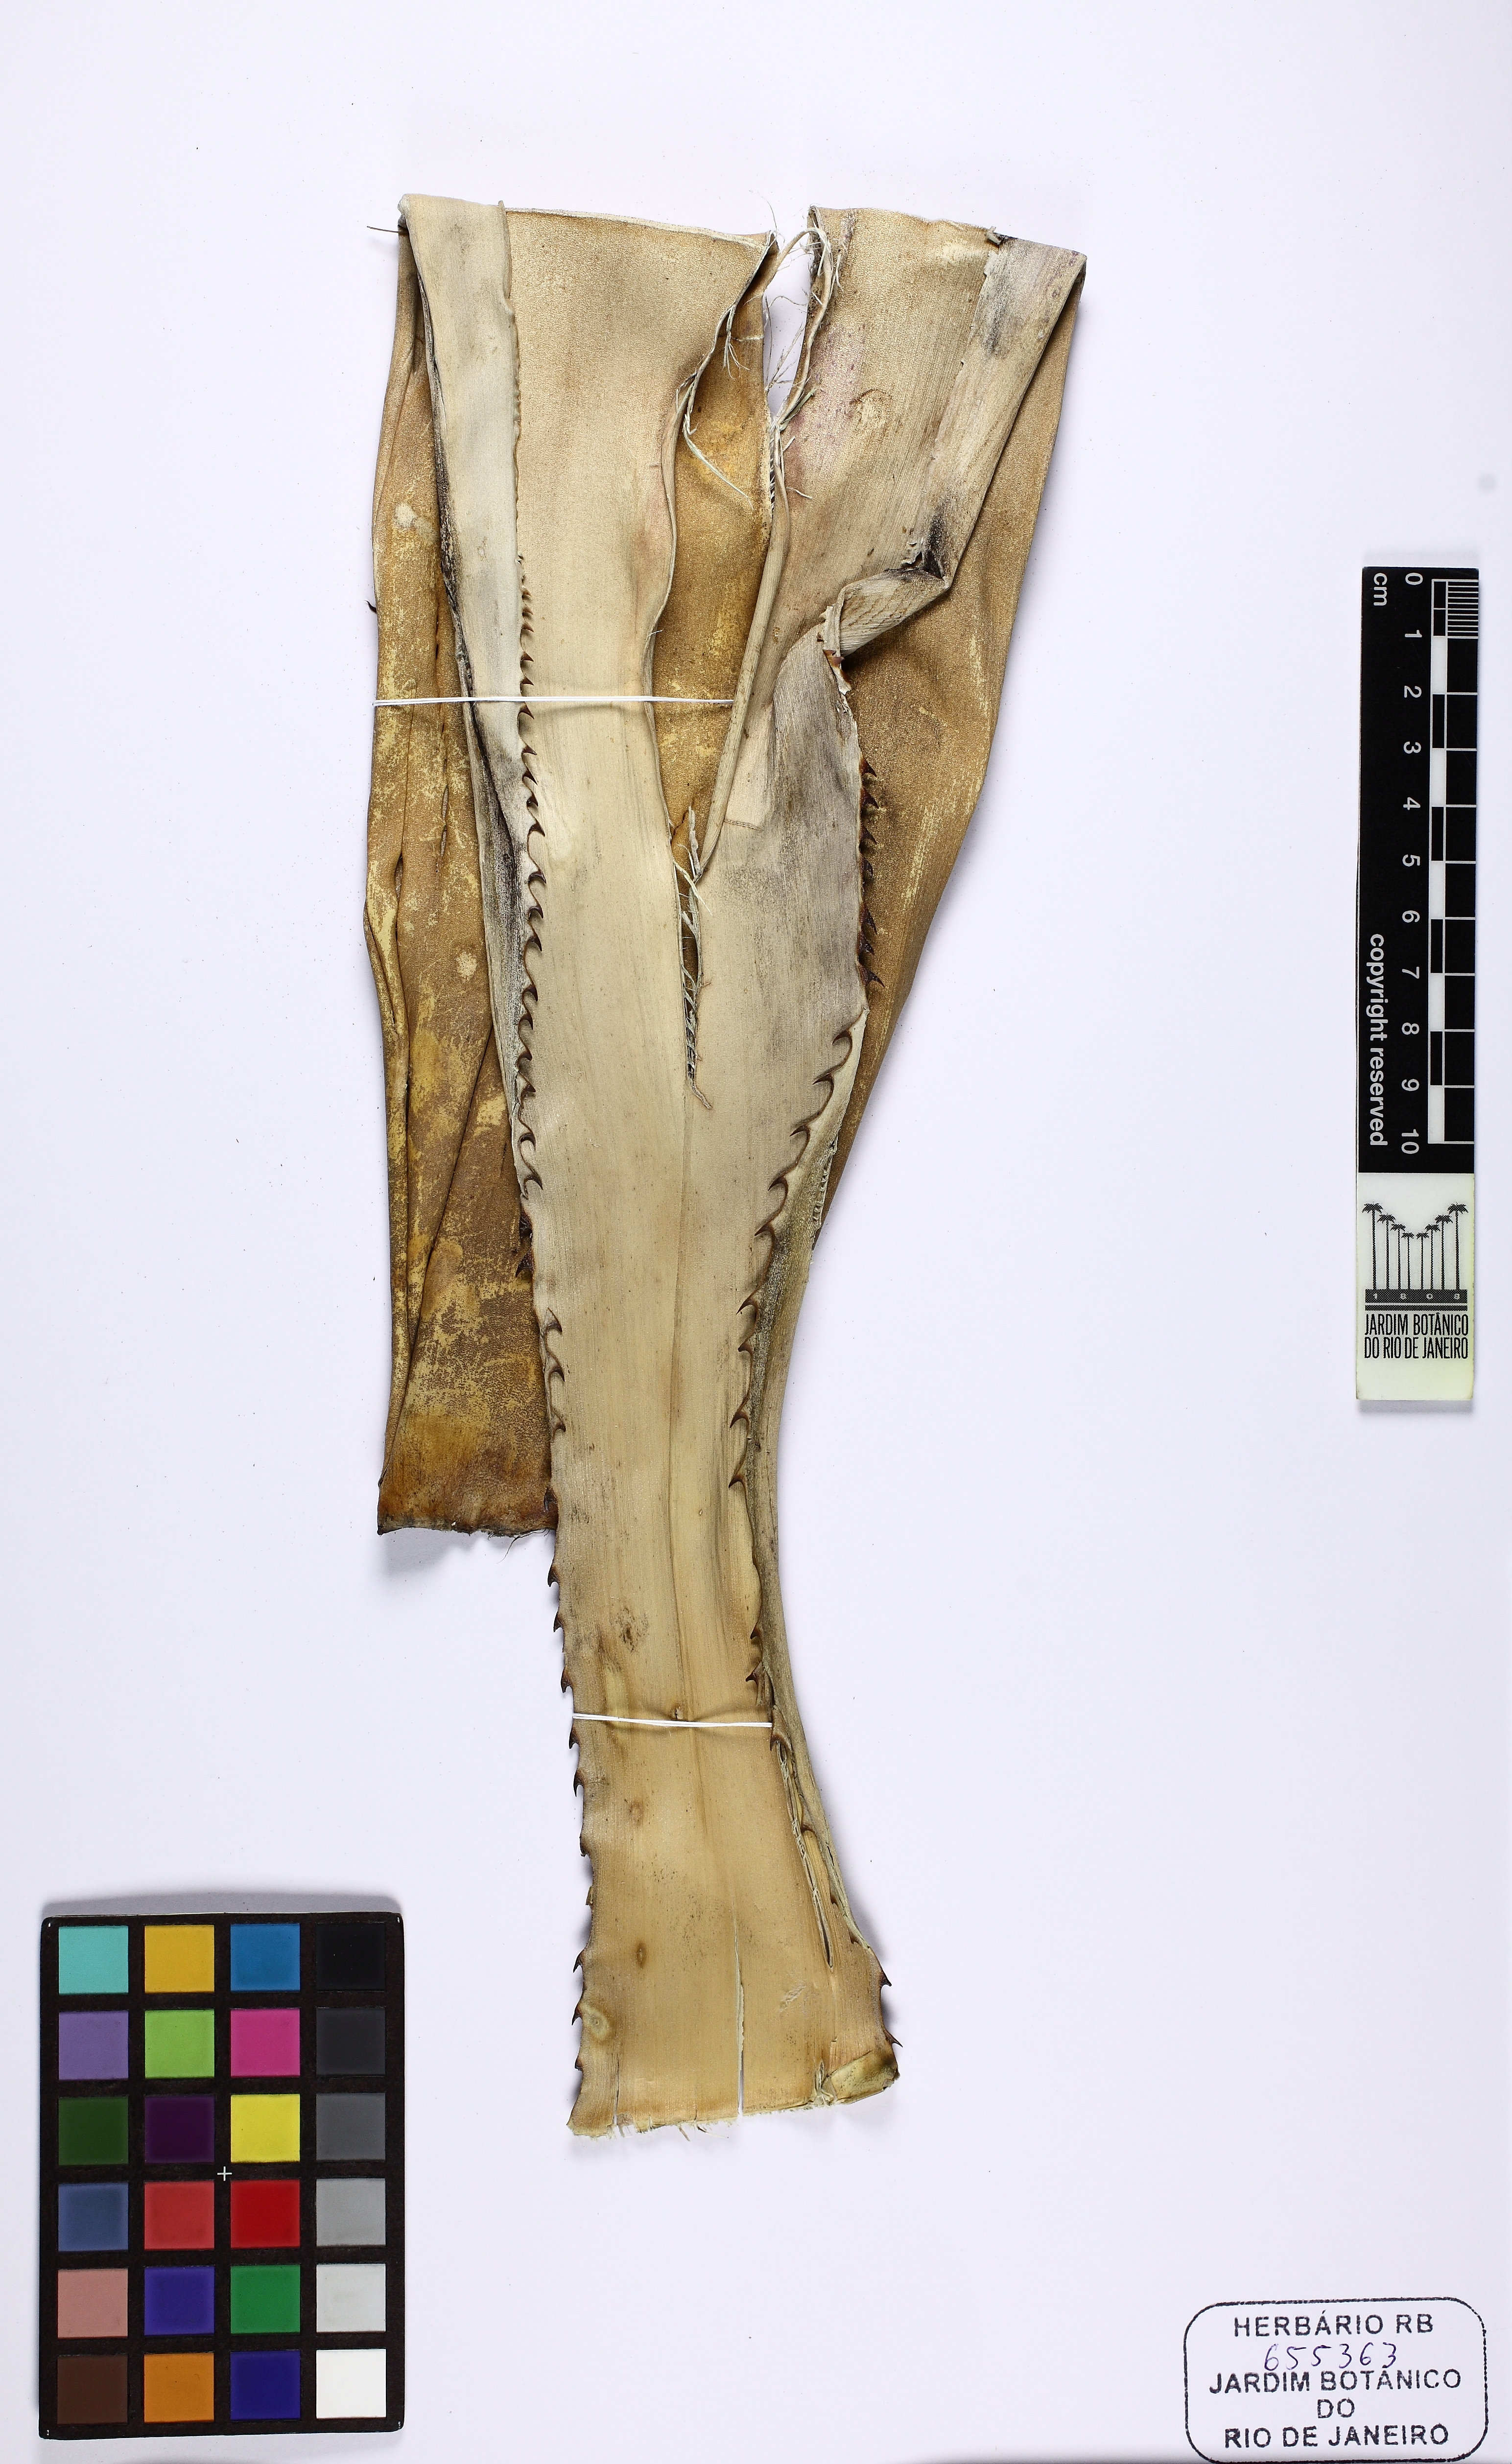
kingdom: Plantae
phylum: Tracheophyta
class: Liliopsida
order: Poales
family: Bromeliaceae
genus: Aechmea
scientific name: Aechmea leptantha
